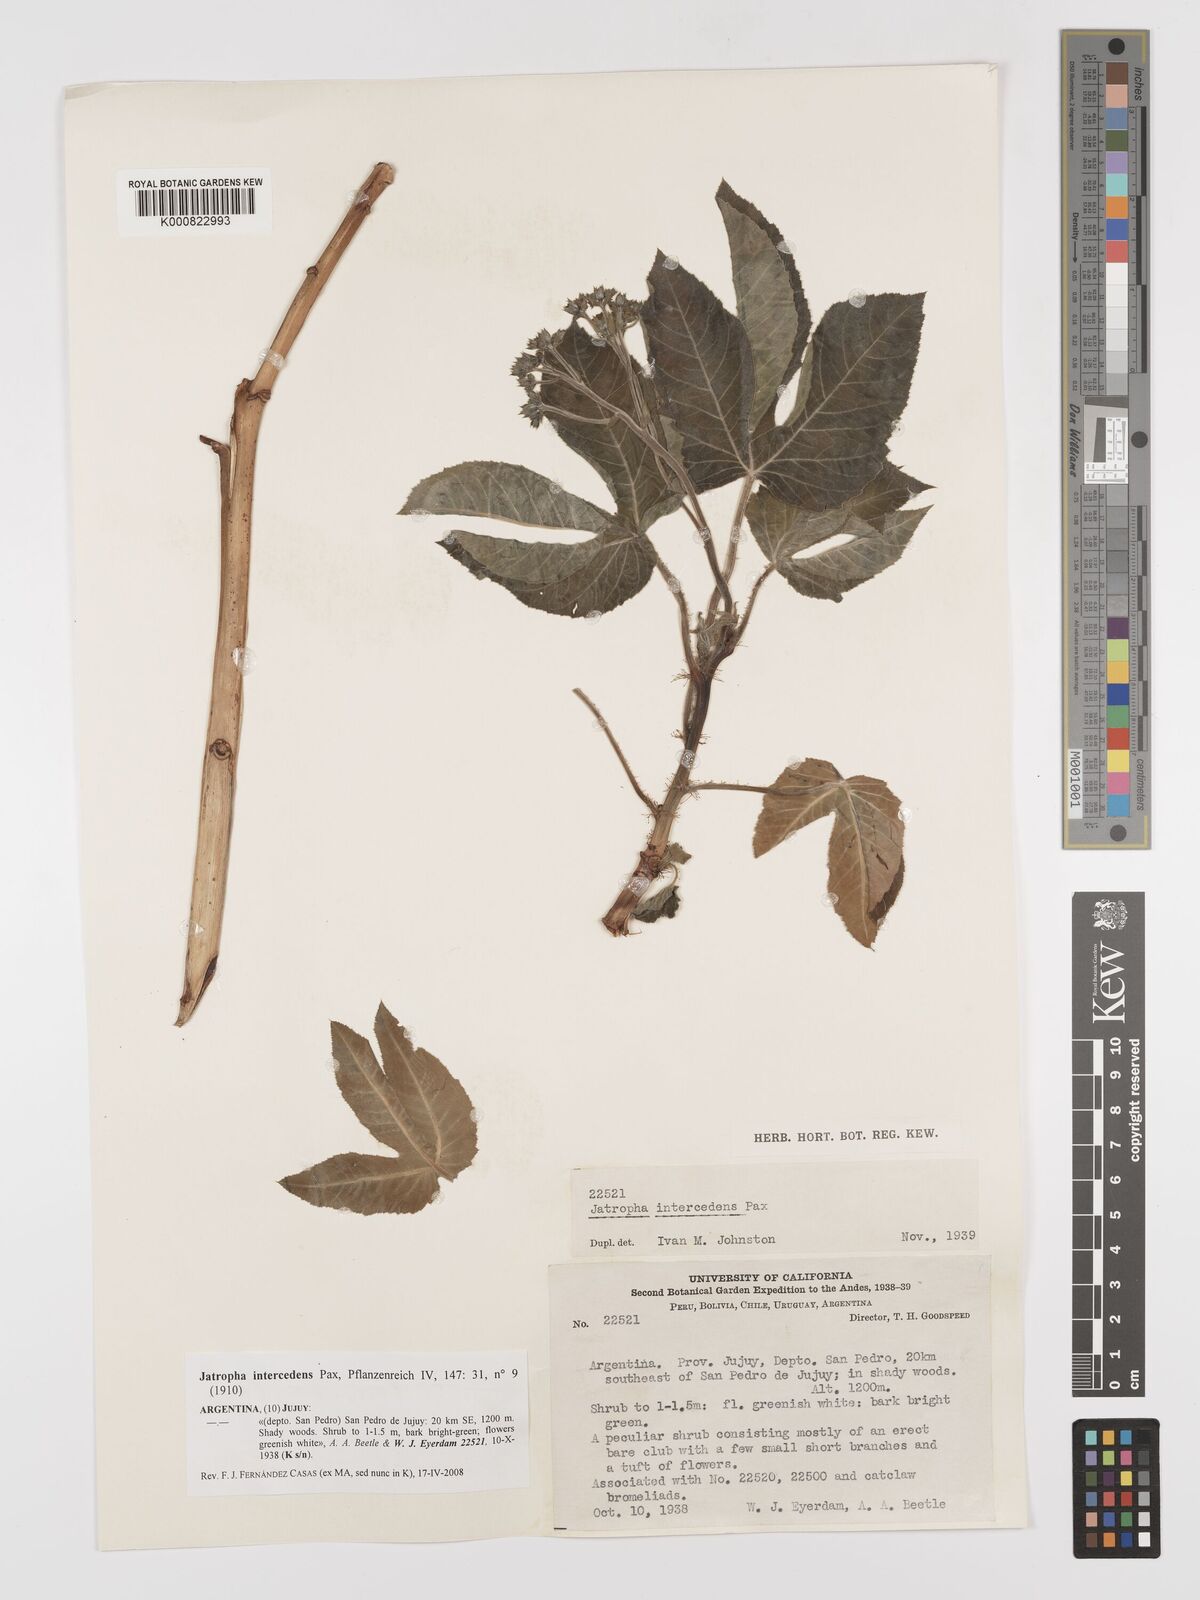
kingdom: Plantae
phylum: Tracheophyta
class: Magnoliopsida
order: Malpighiales
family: Euphorbiaceae
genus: Jatropha
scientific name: Jatropha excisa
